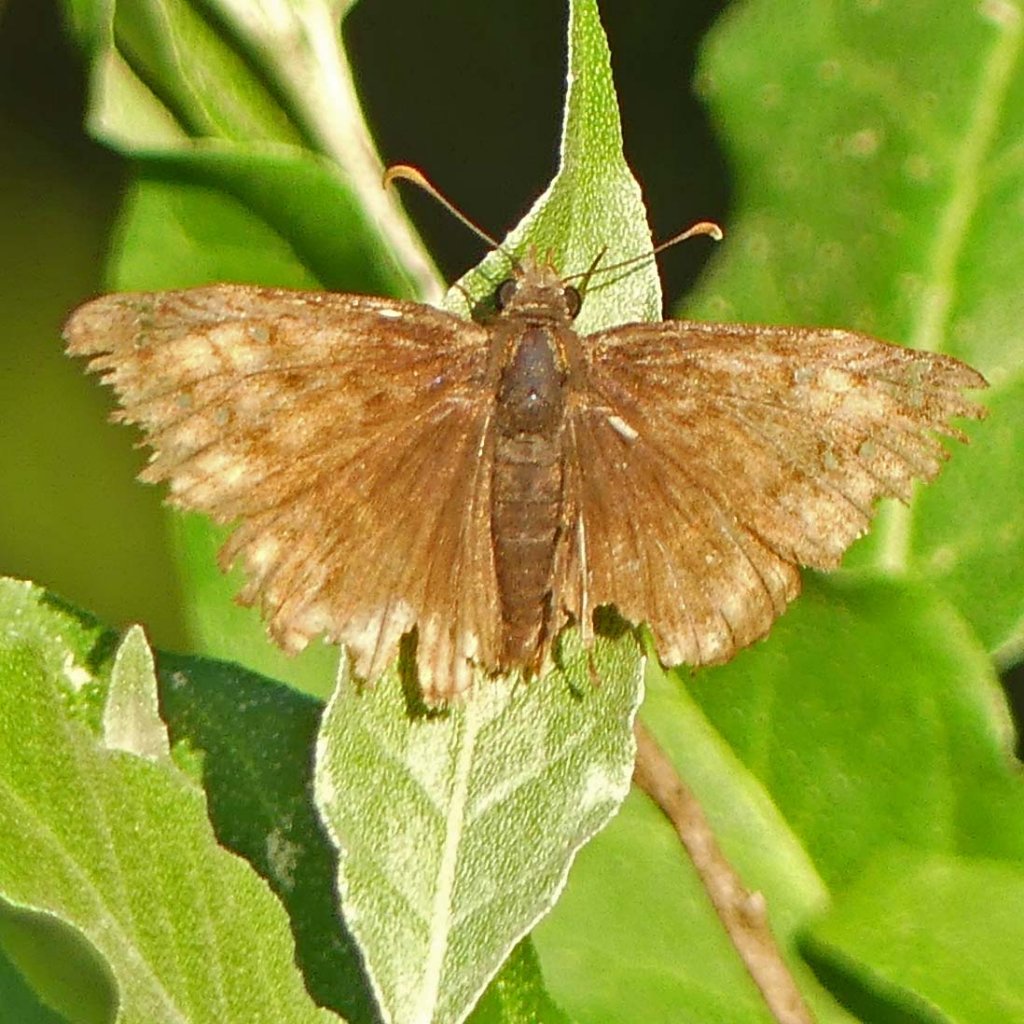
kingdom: Animalia
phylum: Arthropoda
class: Insecta
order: Lepidoptera
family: Hesperiidae
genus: Erynnis
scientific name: Erynnis
